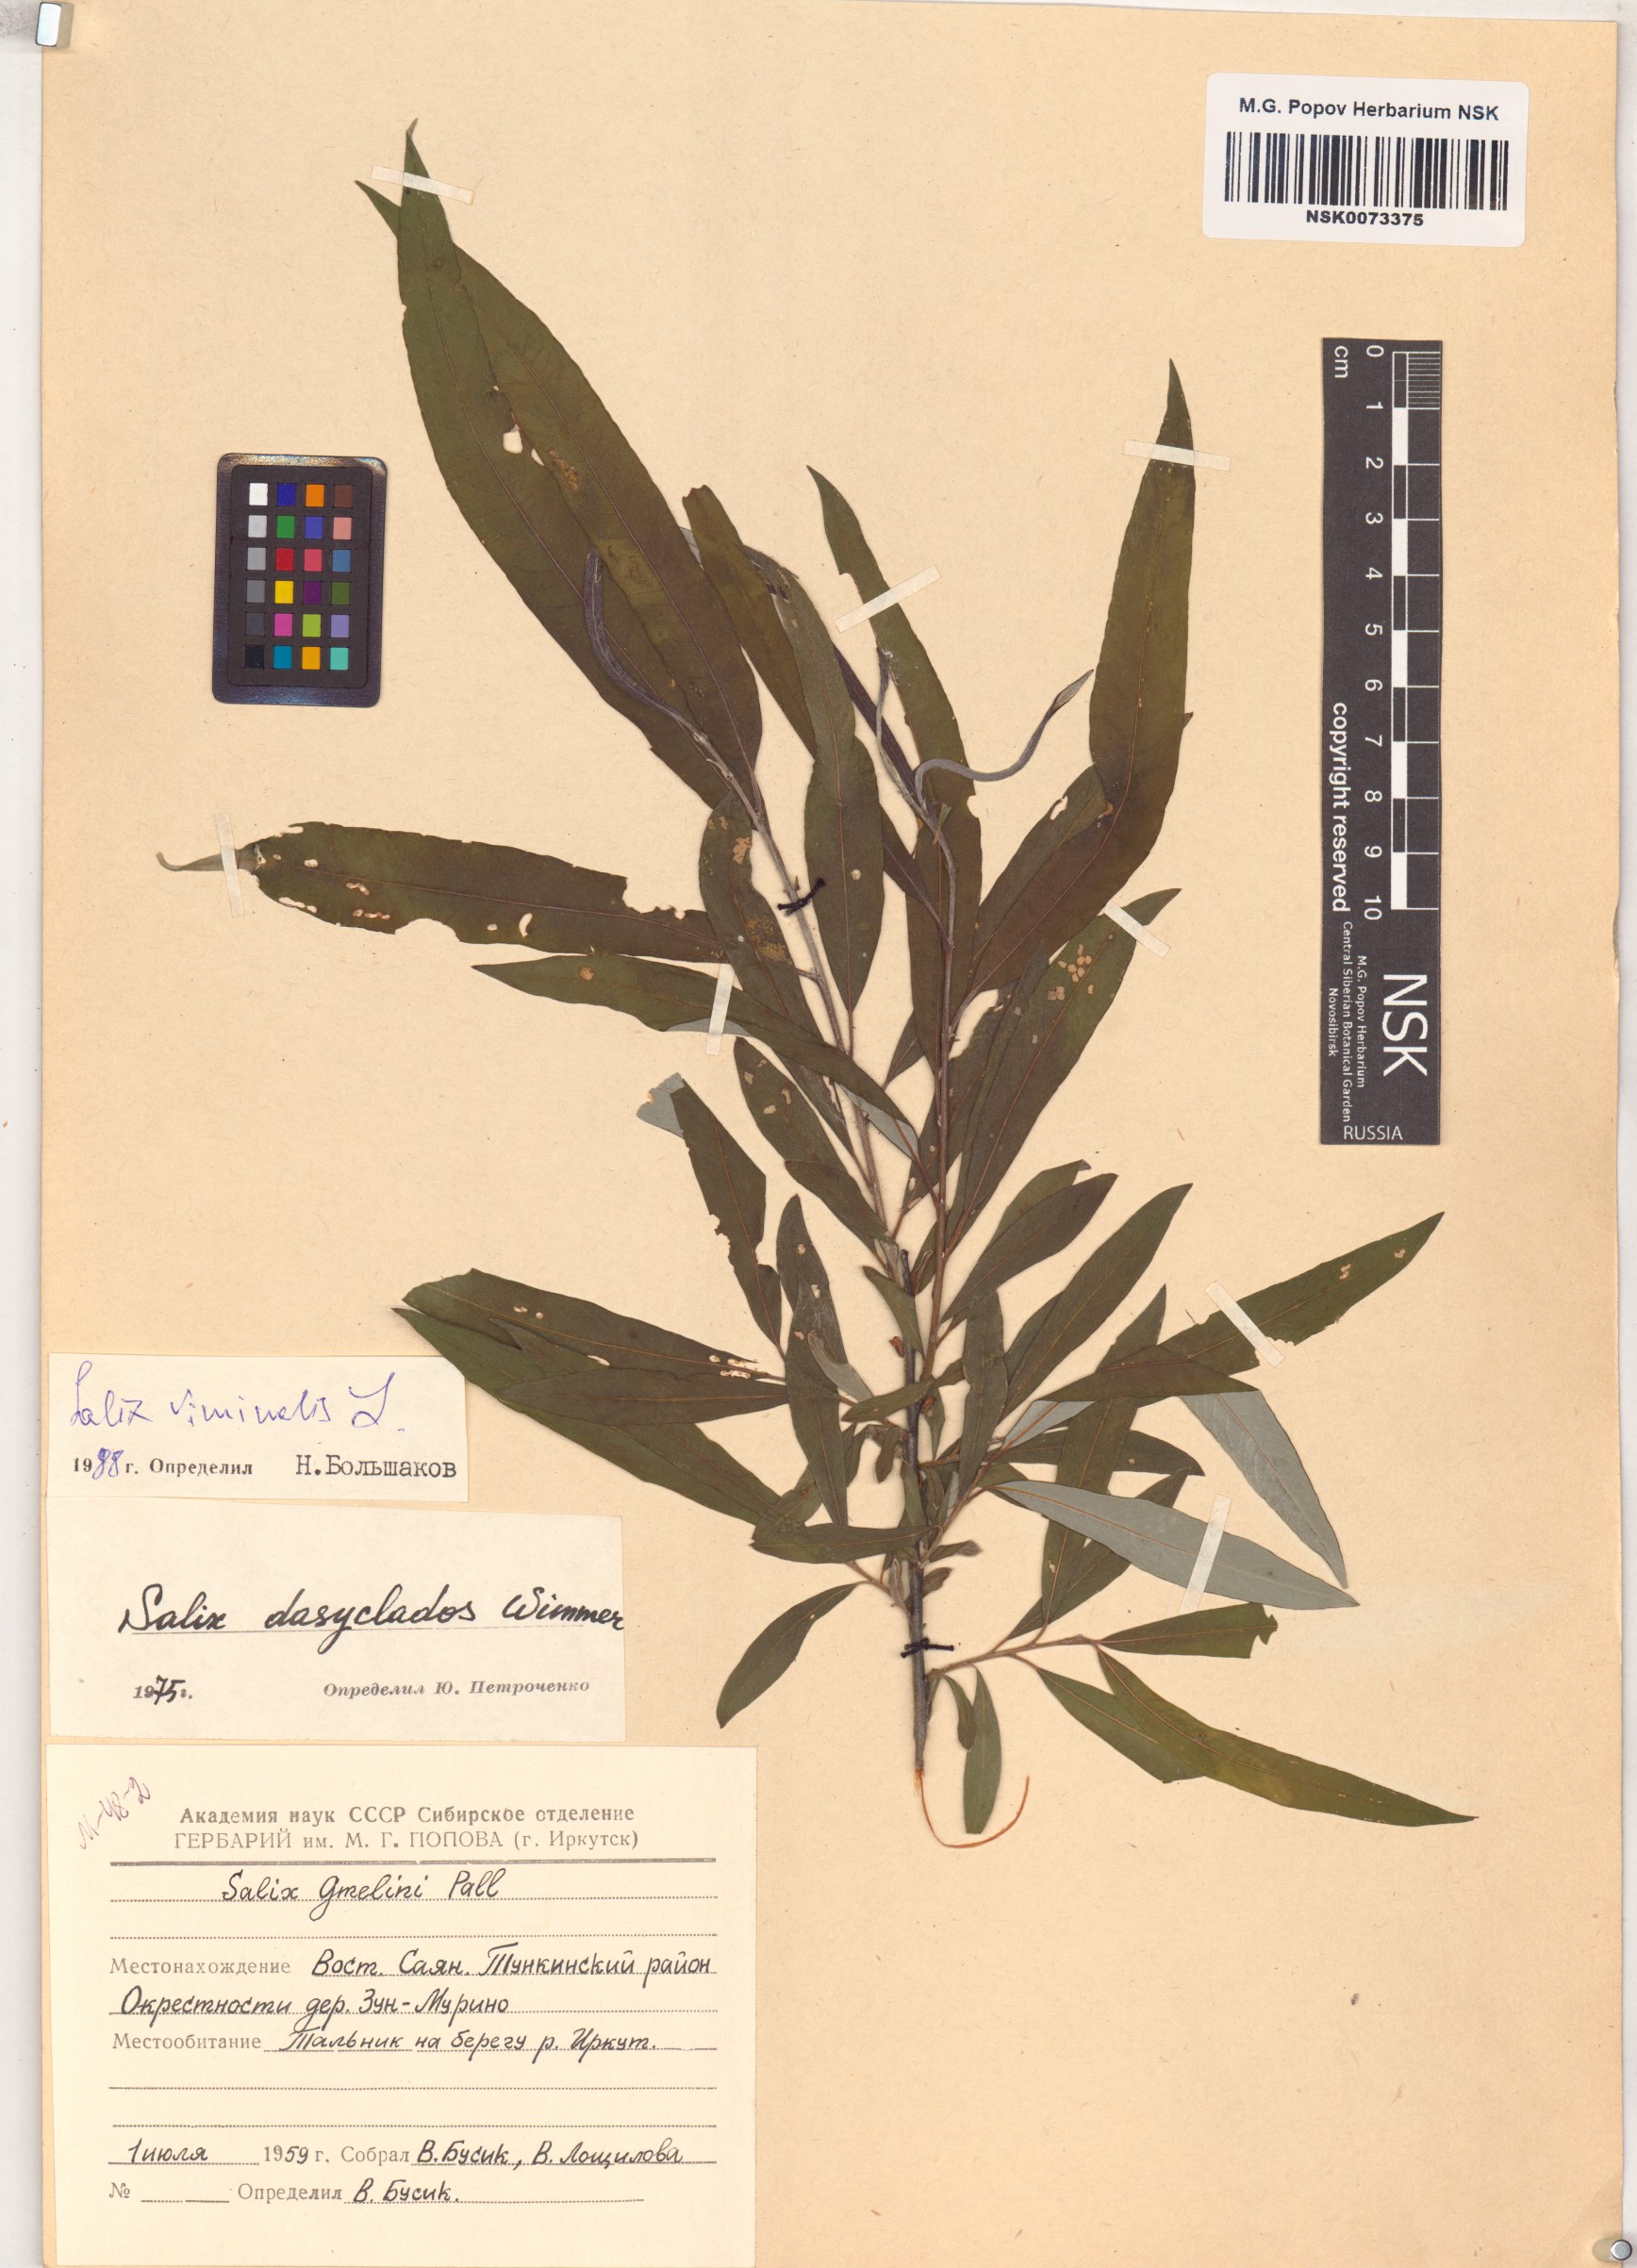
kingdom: Plantae
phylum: Tracheophyta
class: Magnoliopsida
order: Malpighiales
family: Salicaceae
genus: Salix
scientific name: Salix viminalis
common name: Osier
